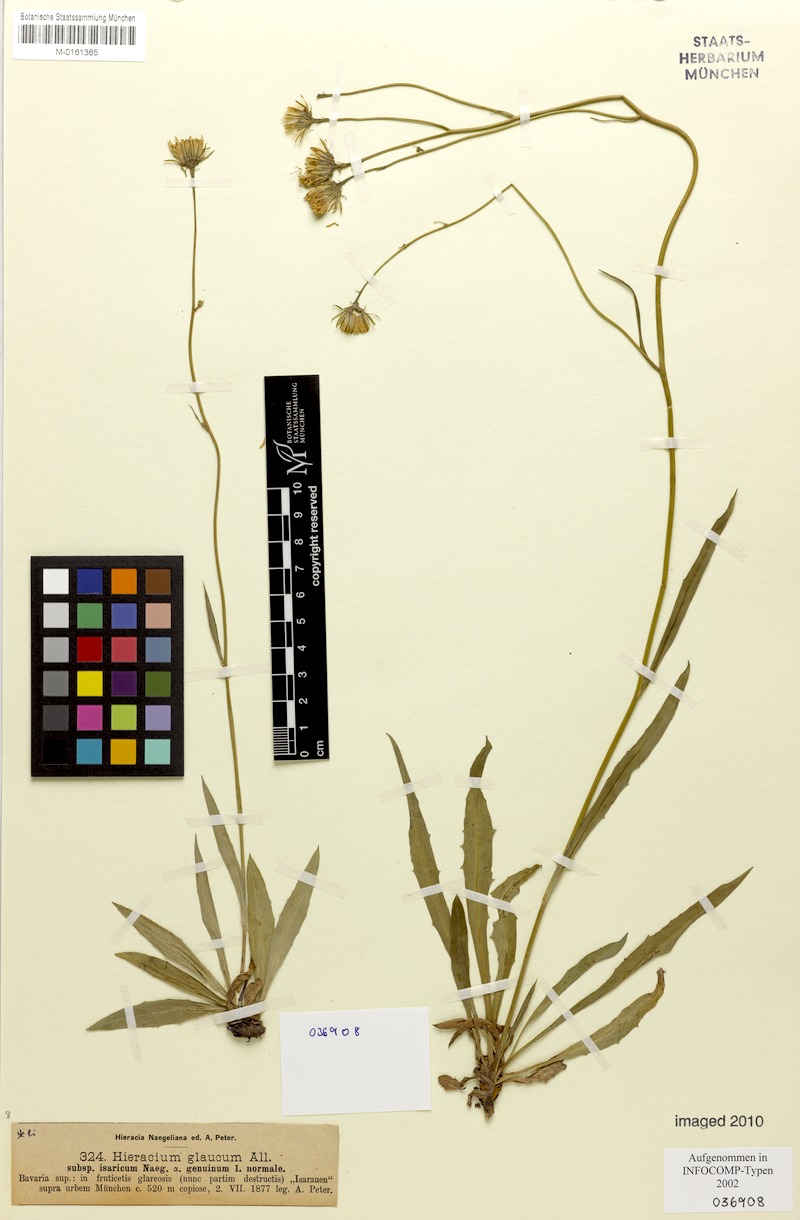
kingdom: Plantae
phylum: Tracheophyta
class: Magnoliopsida
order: Asterales
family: Asteraceae
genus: Hieracium
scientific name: Hieracium glaucum
